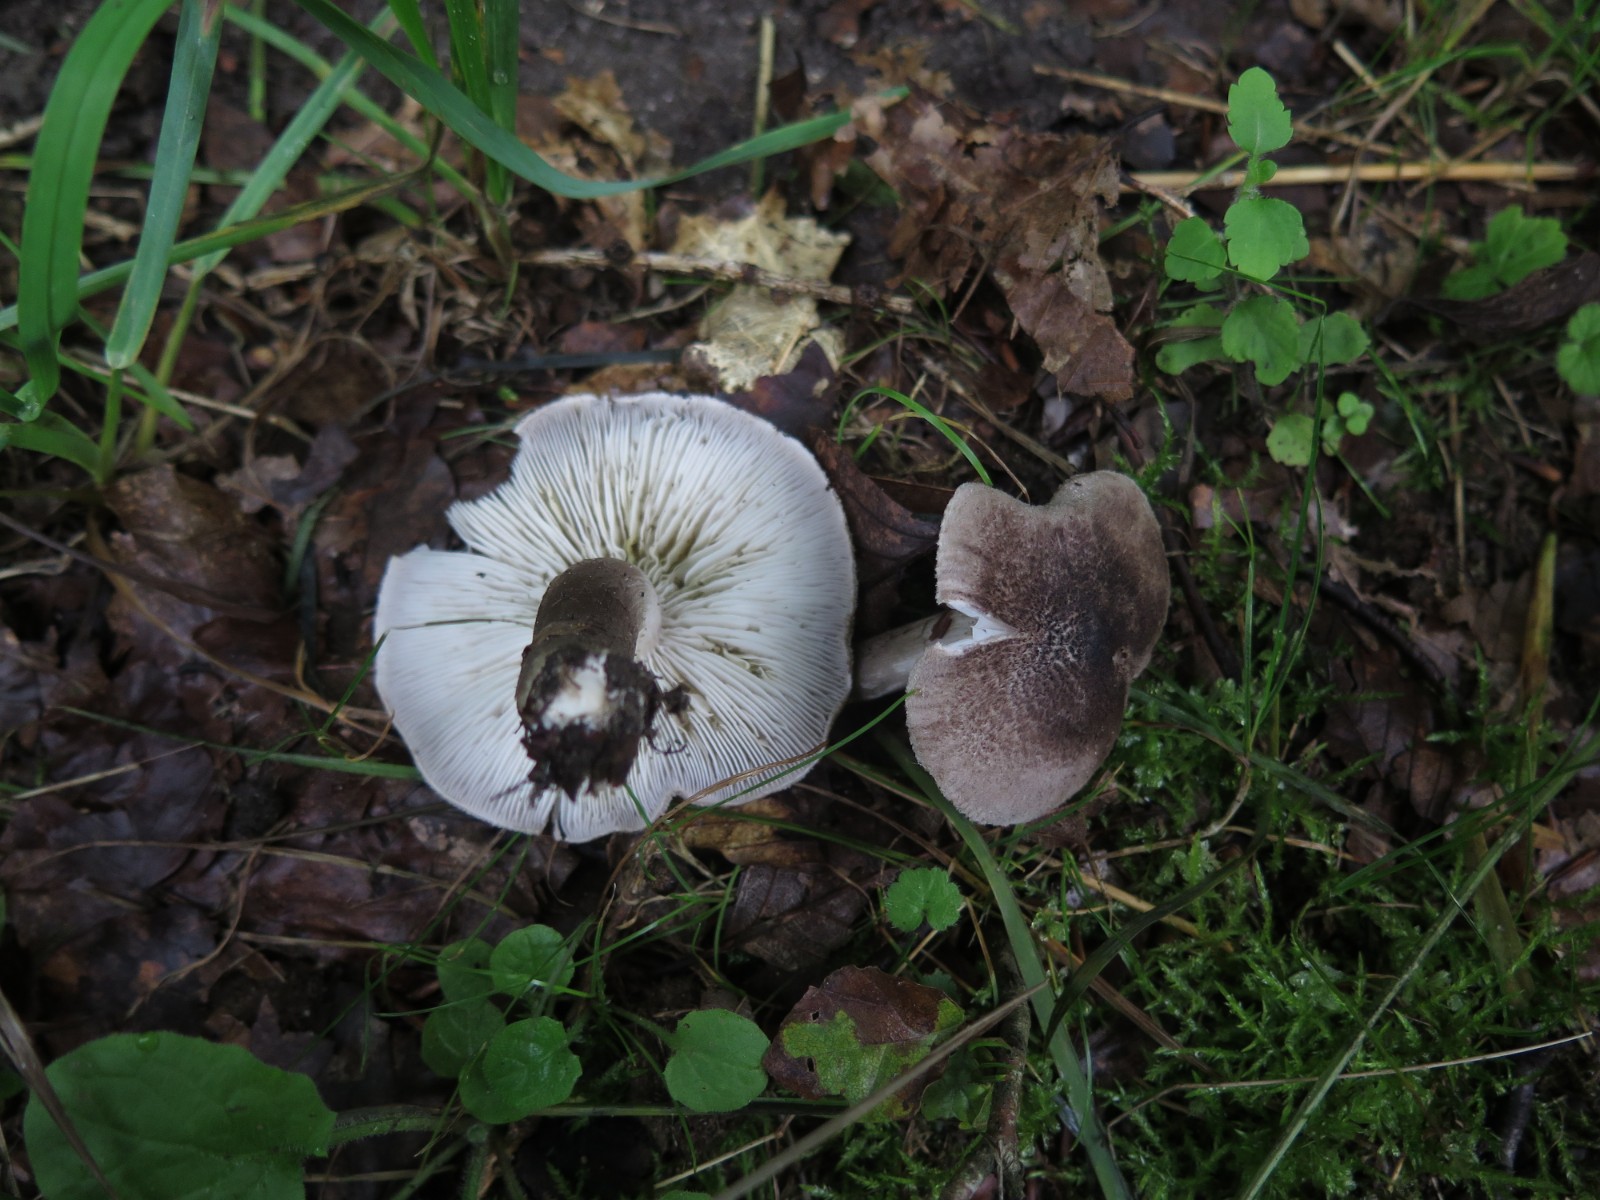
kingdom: Fungi
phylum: Basidiomycota
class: Agaricomycetes
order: Agaricales
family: Tricholomataceae
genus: Tricholoma
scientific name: Tricholoma scalpturatum
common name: gulplettet ridderhat
